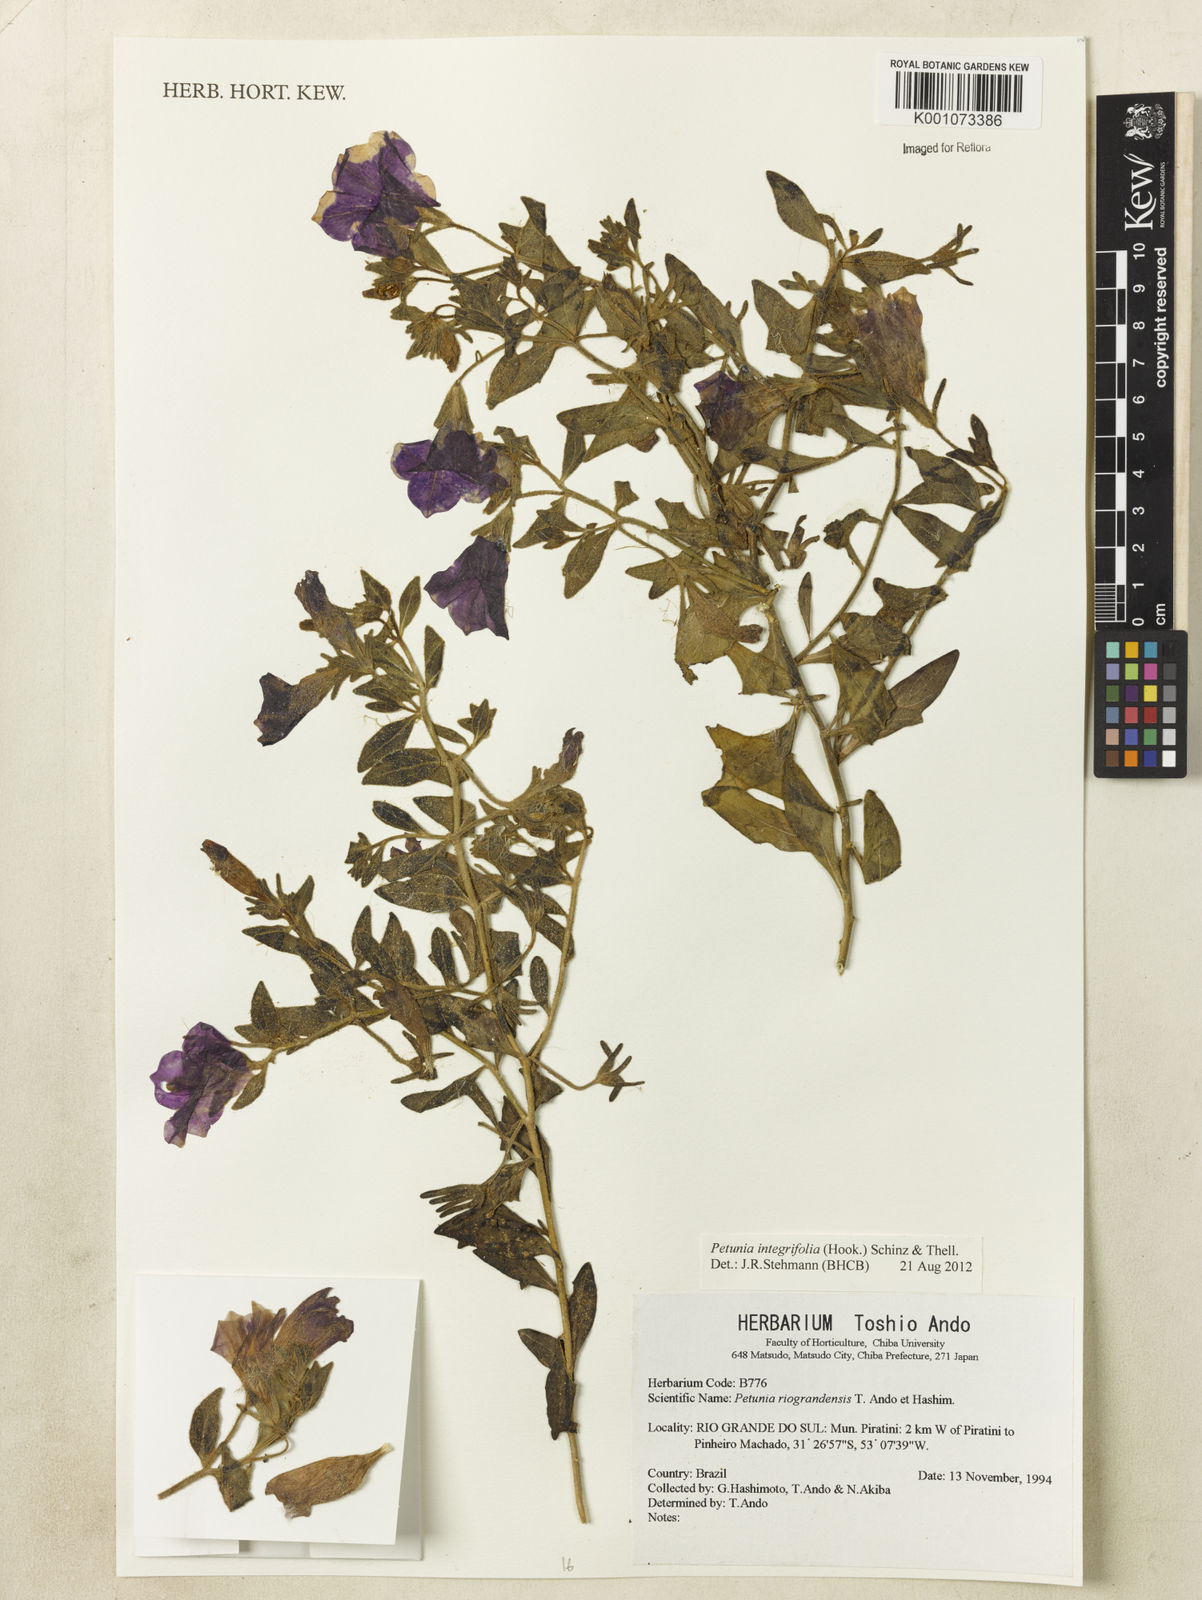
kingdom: Plantae
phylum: Tracheophyta
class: Magnoliopsida
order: Solanales
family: Solanaceae
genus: Petunia
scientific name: Petunia integrifolia
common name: Violet-flower petunia
